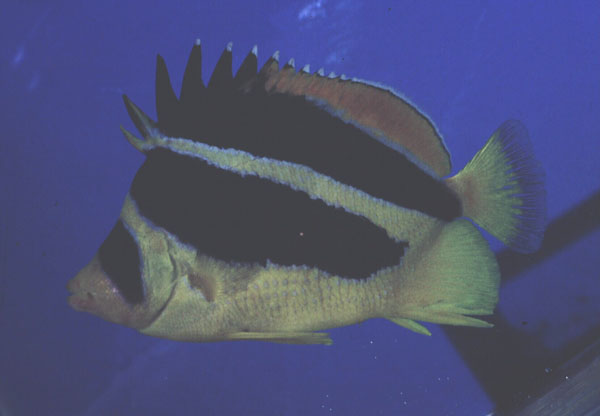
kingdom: Animalia
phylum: Chordata
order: Perciformes
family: Chaetodontidae
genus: Chaetodon
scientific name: Chaetodon mitratus
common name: Indian butterflyfish
